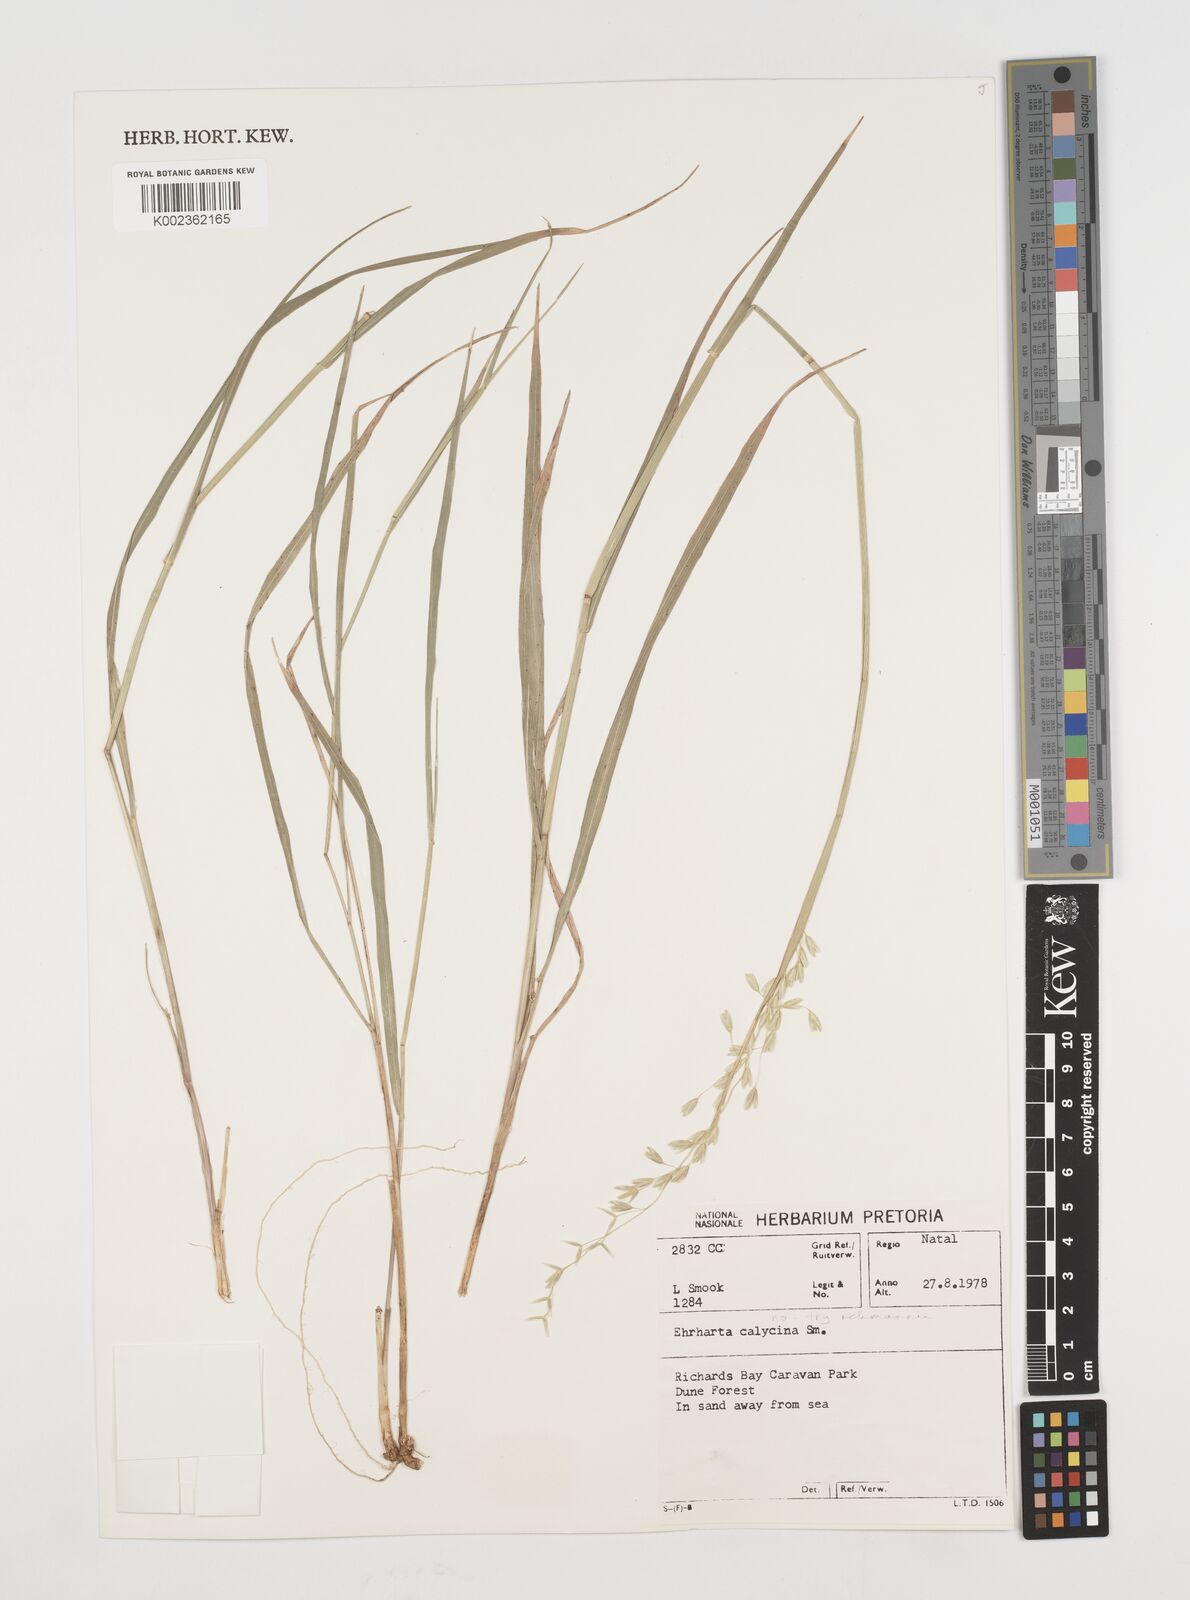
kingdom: Plantae
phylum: Tracheophyta
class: Liliopsida
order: Poales
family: Poaceae
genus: Ehrharta
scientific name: Ehrharta
